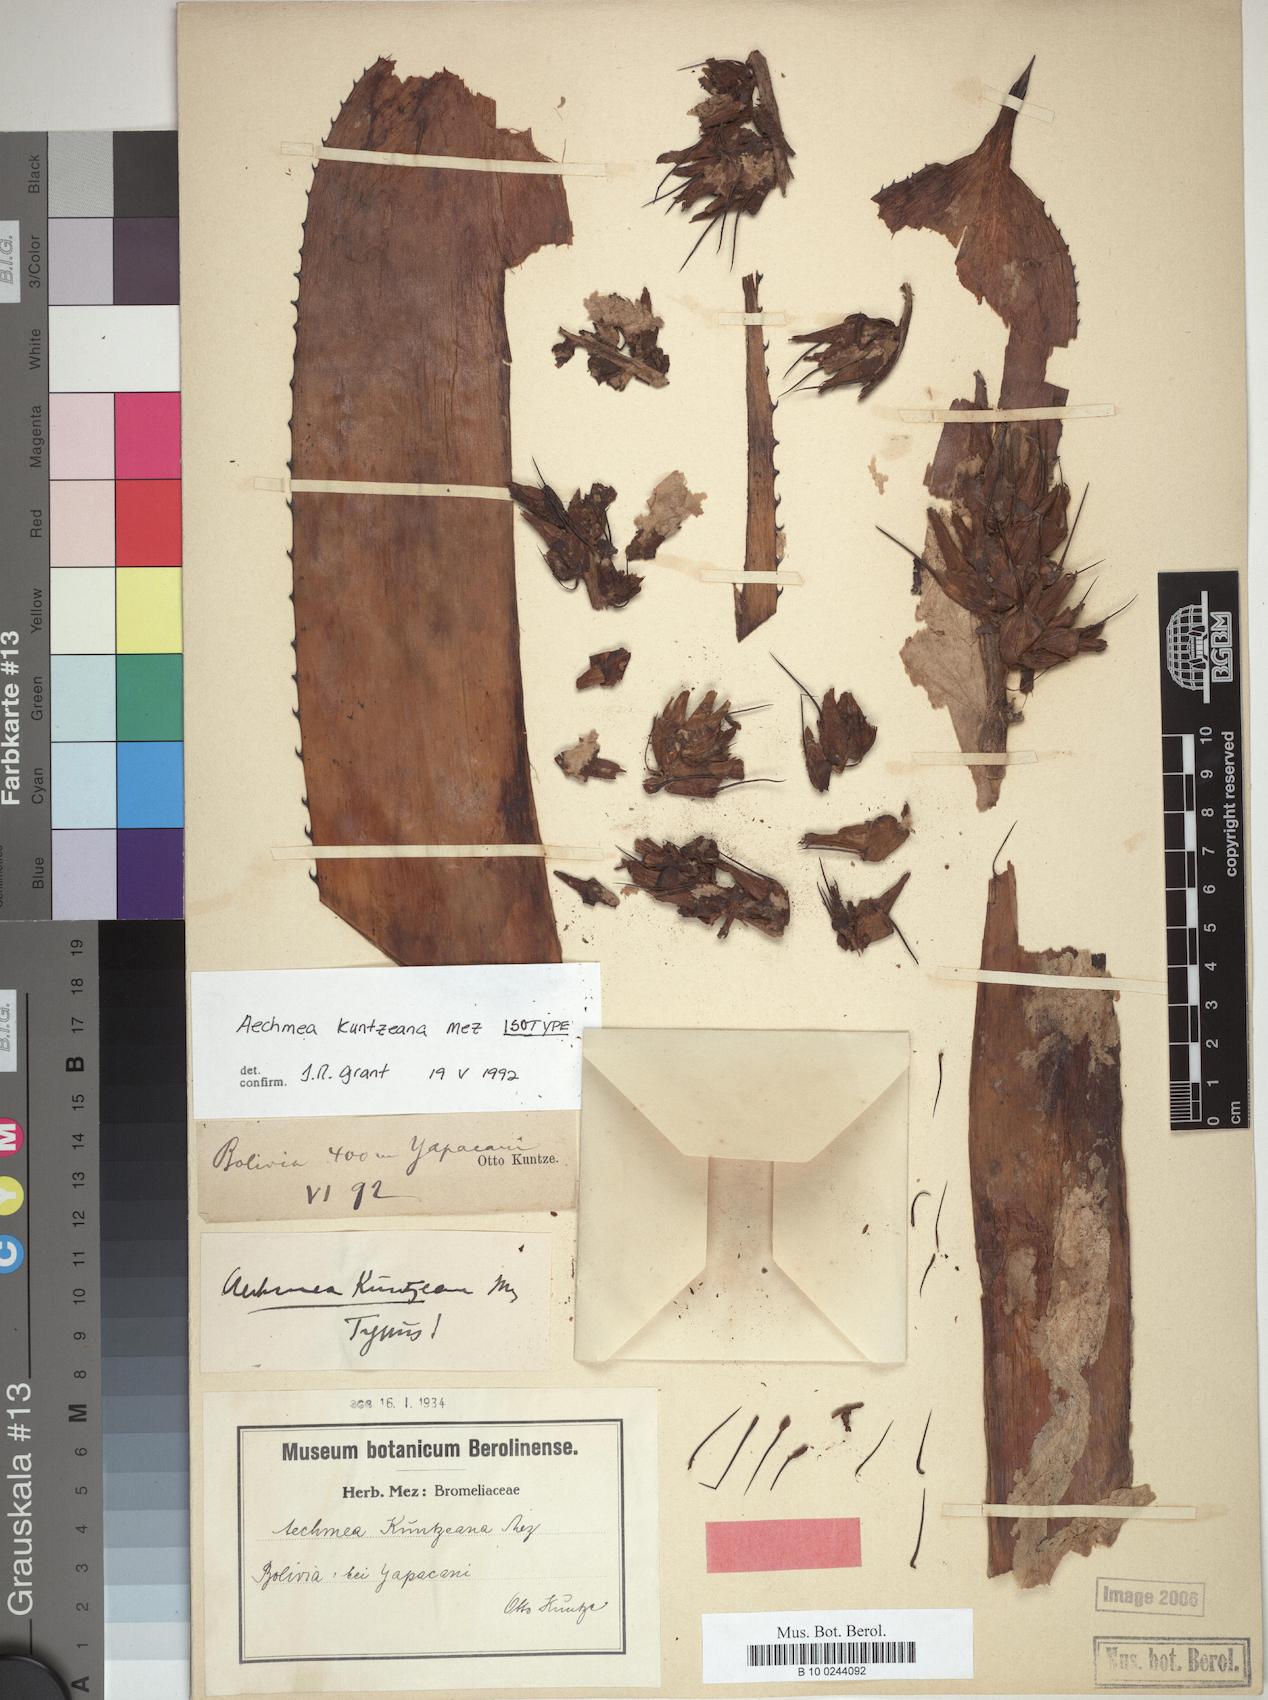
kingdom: Plantae
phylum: Tracheophyta
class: Liliopsida
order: Poales
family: Bromeliaceae
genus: Aechmea
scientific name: Aechmea longicuspis
